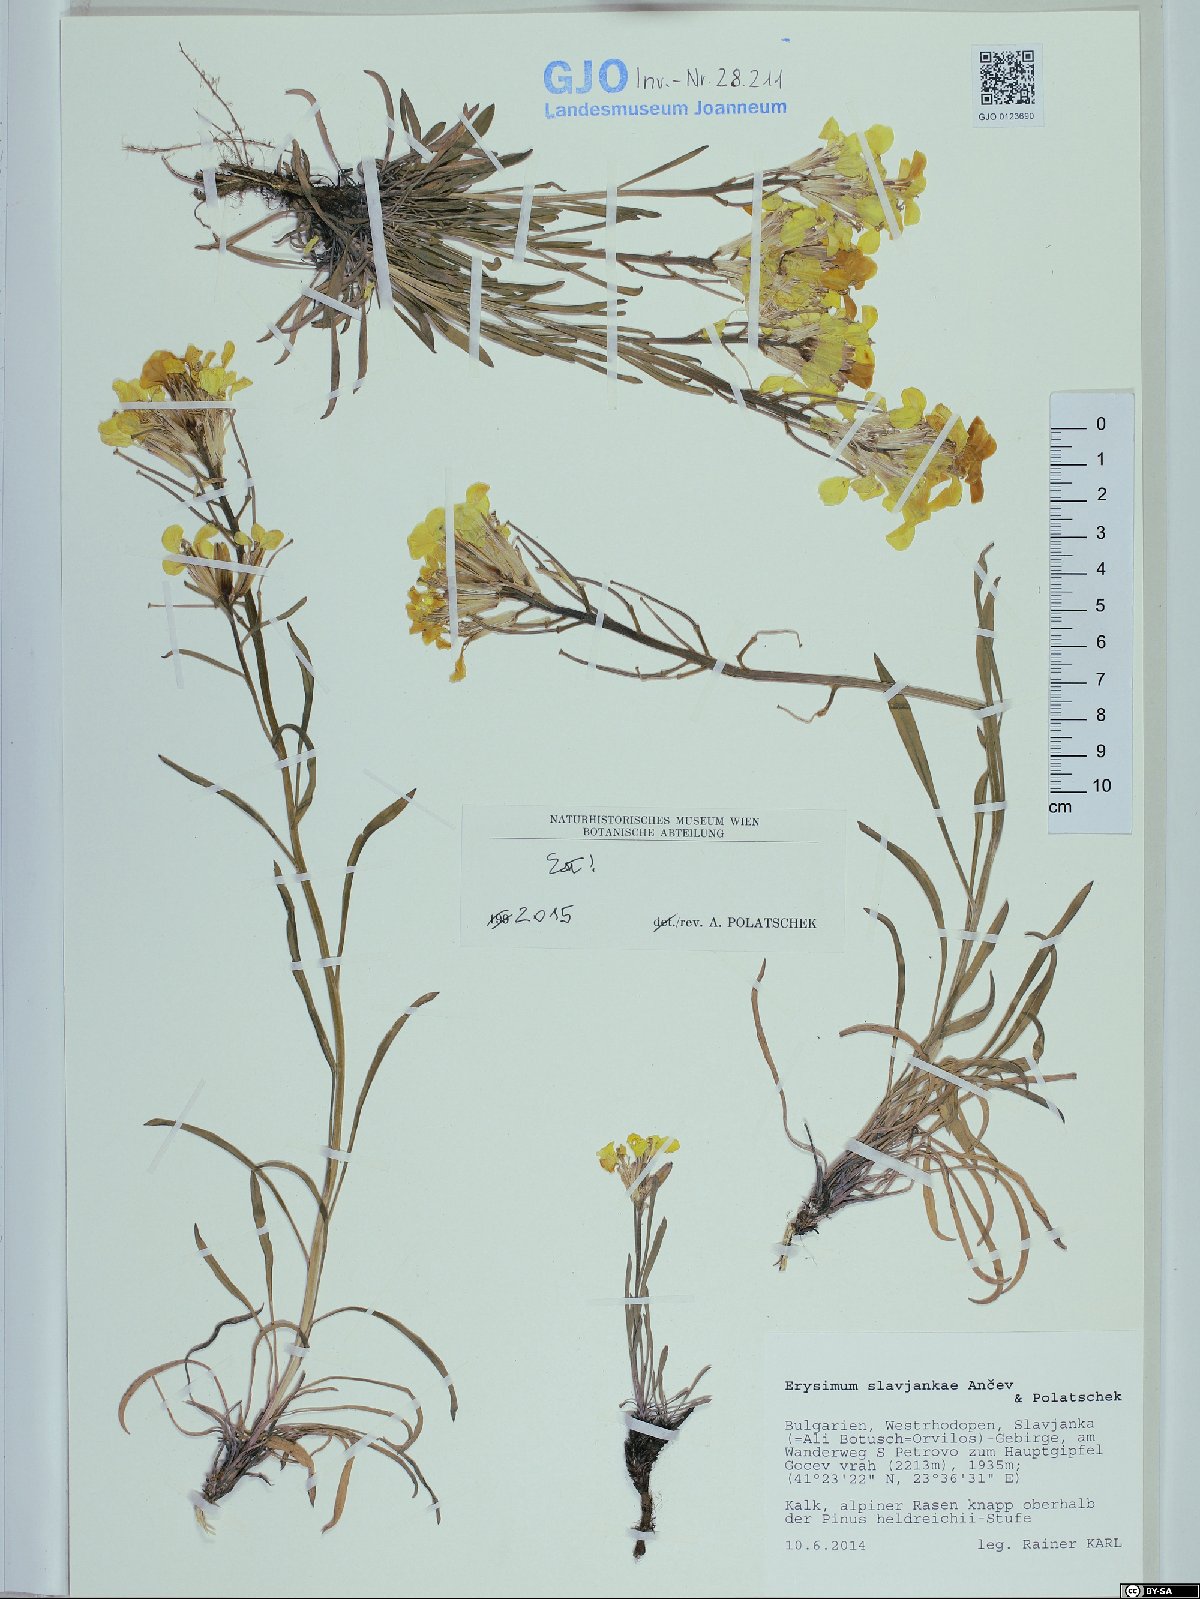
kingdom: Plantae
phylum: Tracheophyta
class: Magnoliopsida
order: Brassicales
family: Brassicaceae
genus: Erysimum
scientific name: Erysimum slavjankae
